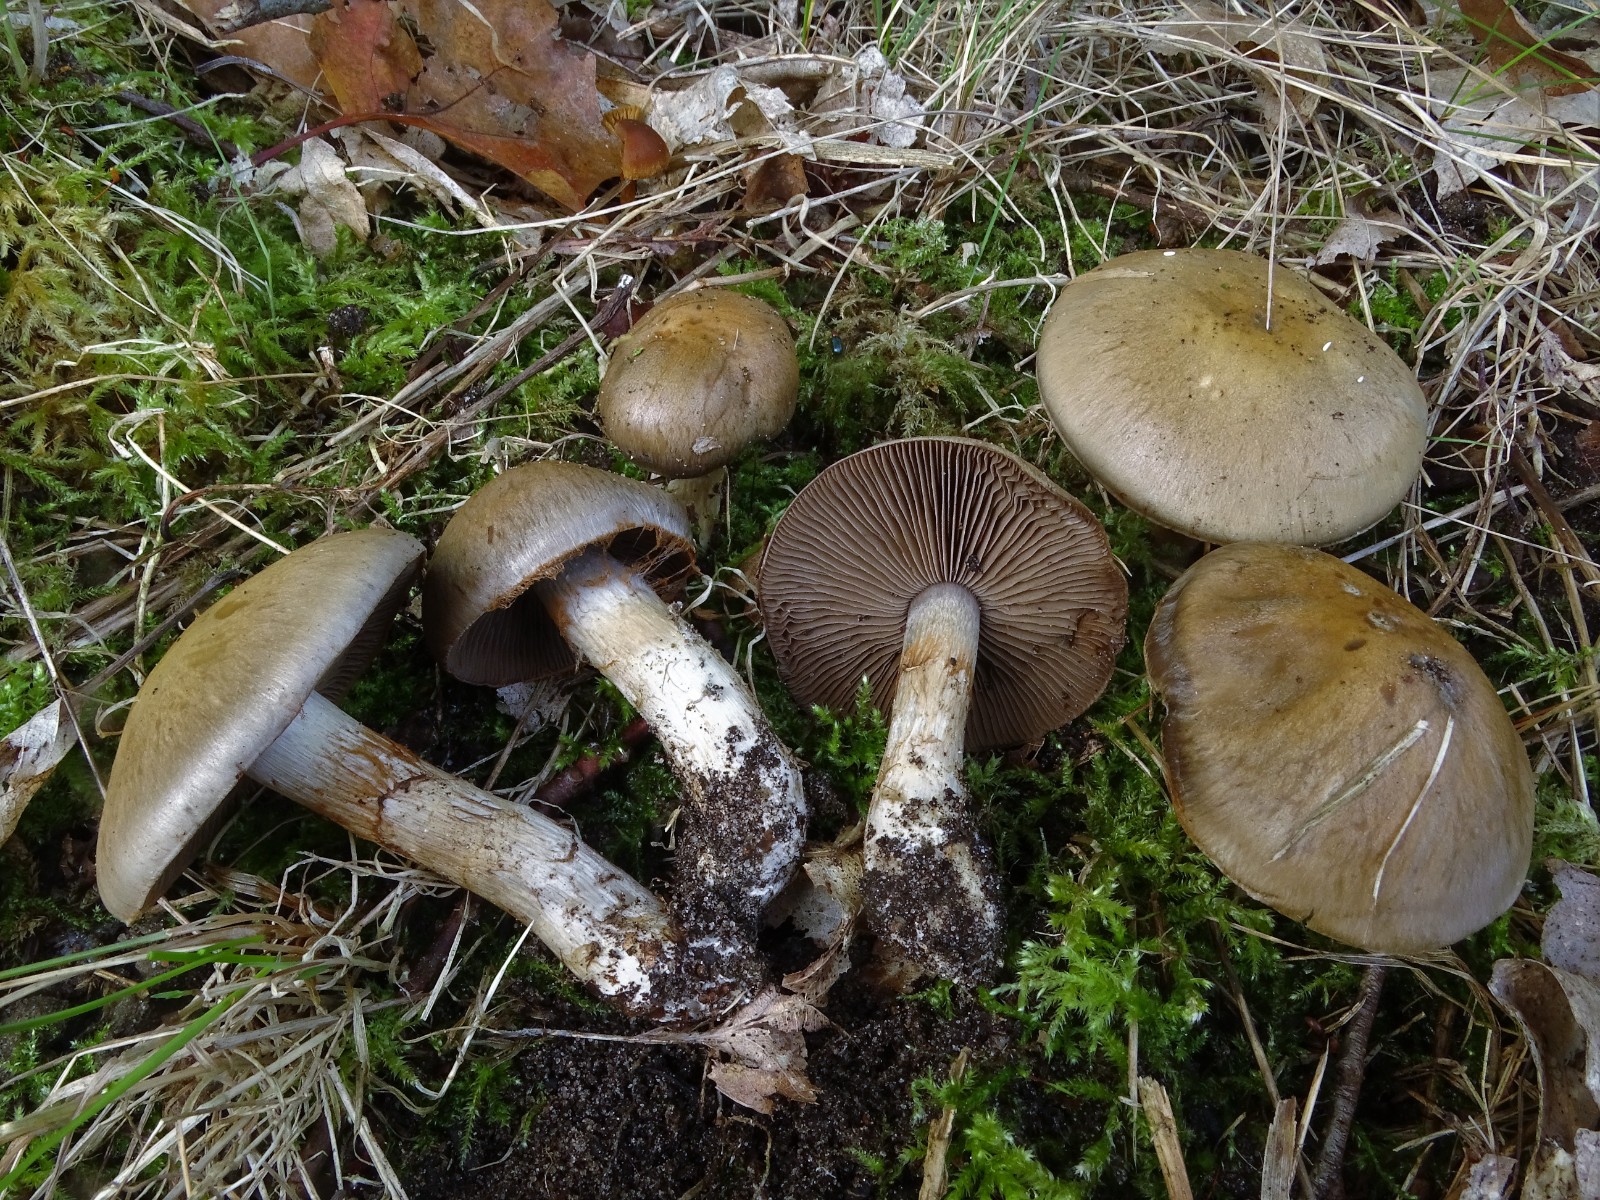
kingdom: Fungi
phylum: Basidiomycota
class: Agaricomycetes
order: Agaricales
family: Cortinariaceae
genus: Cortinarius
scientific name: Cortinarius
